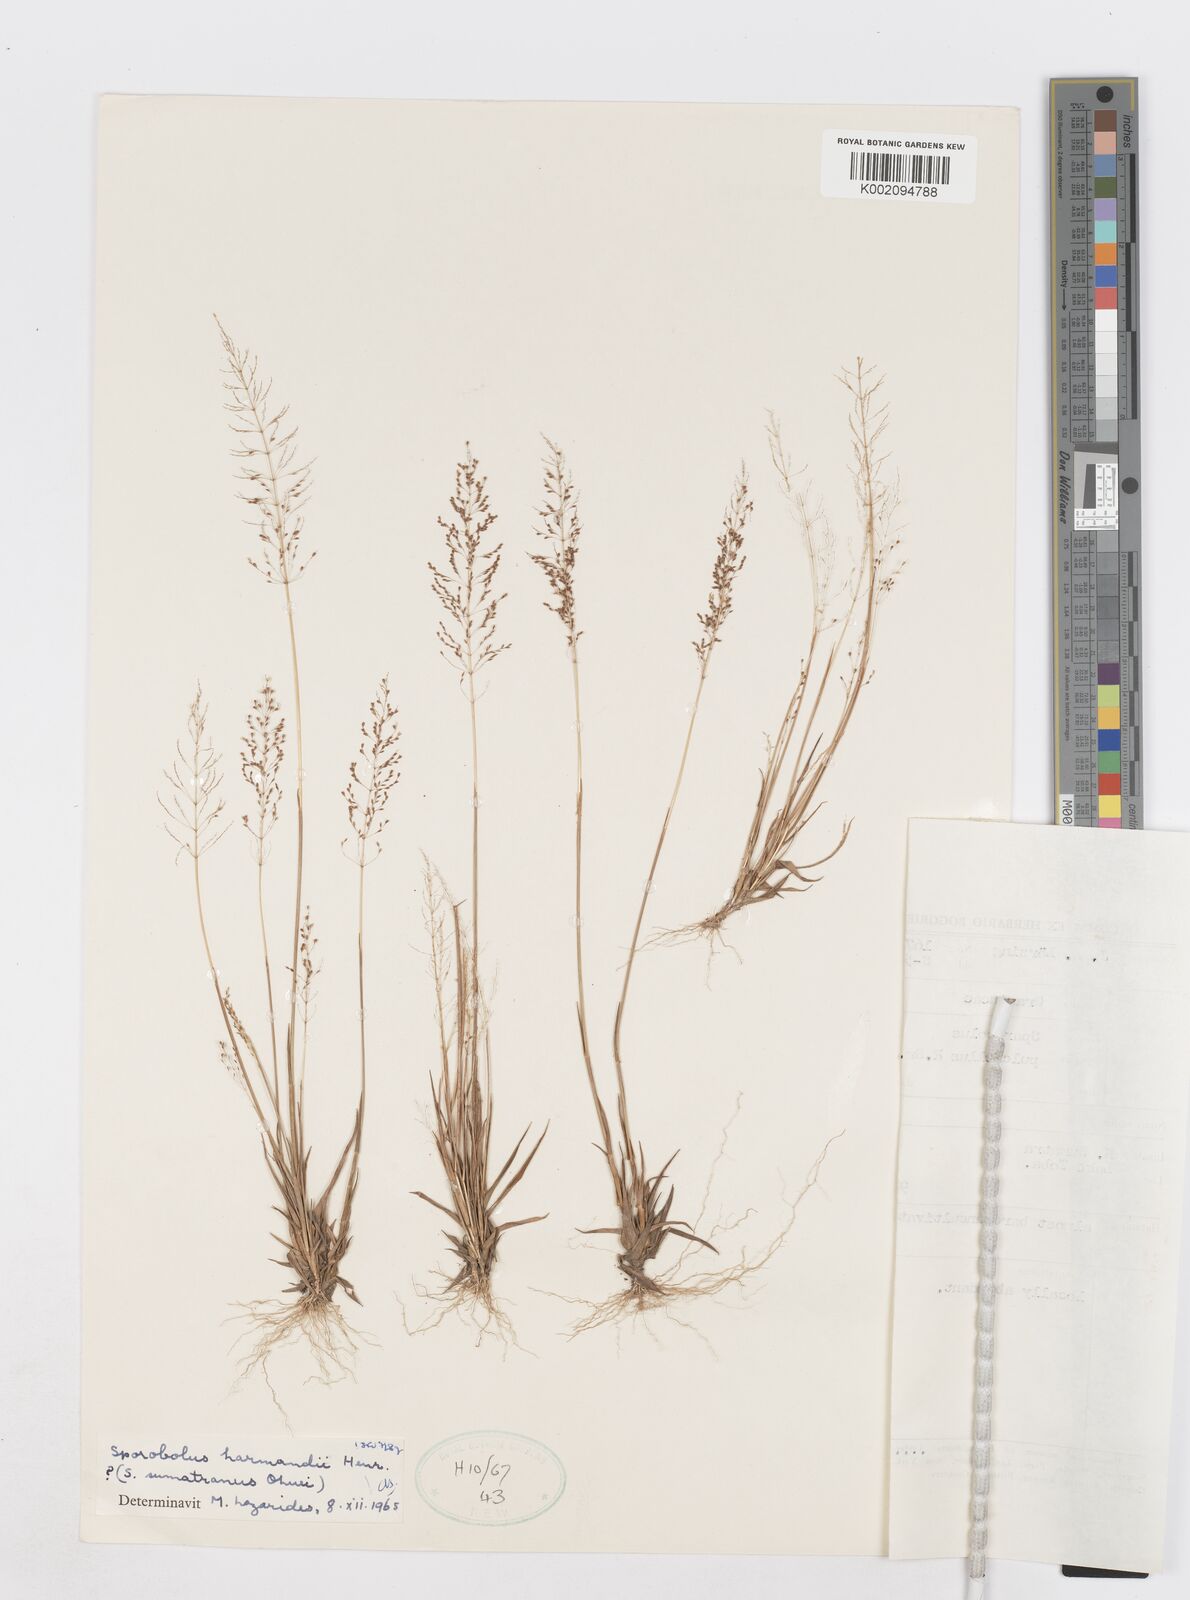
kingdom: Plantae
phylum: Tracheophyta
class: Liliopsida
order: Poales
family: Poaceae
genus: Sporobolus
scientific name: Sporobolus harmandii
